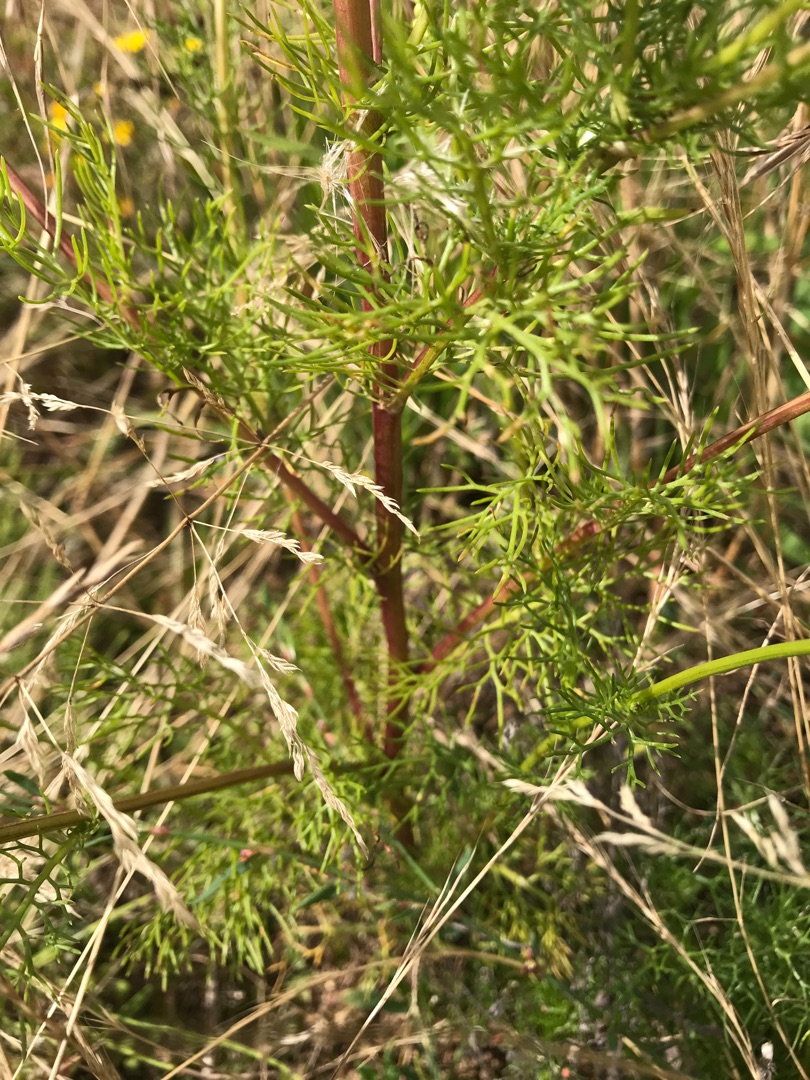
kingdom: Plantae
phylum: Tracheophyta
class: Magnoliopsida
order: Asterales
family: Asteraceae
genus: Tripleurospermum
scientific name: Tripleurospermum inodorum
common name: Lugtløs kamille
